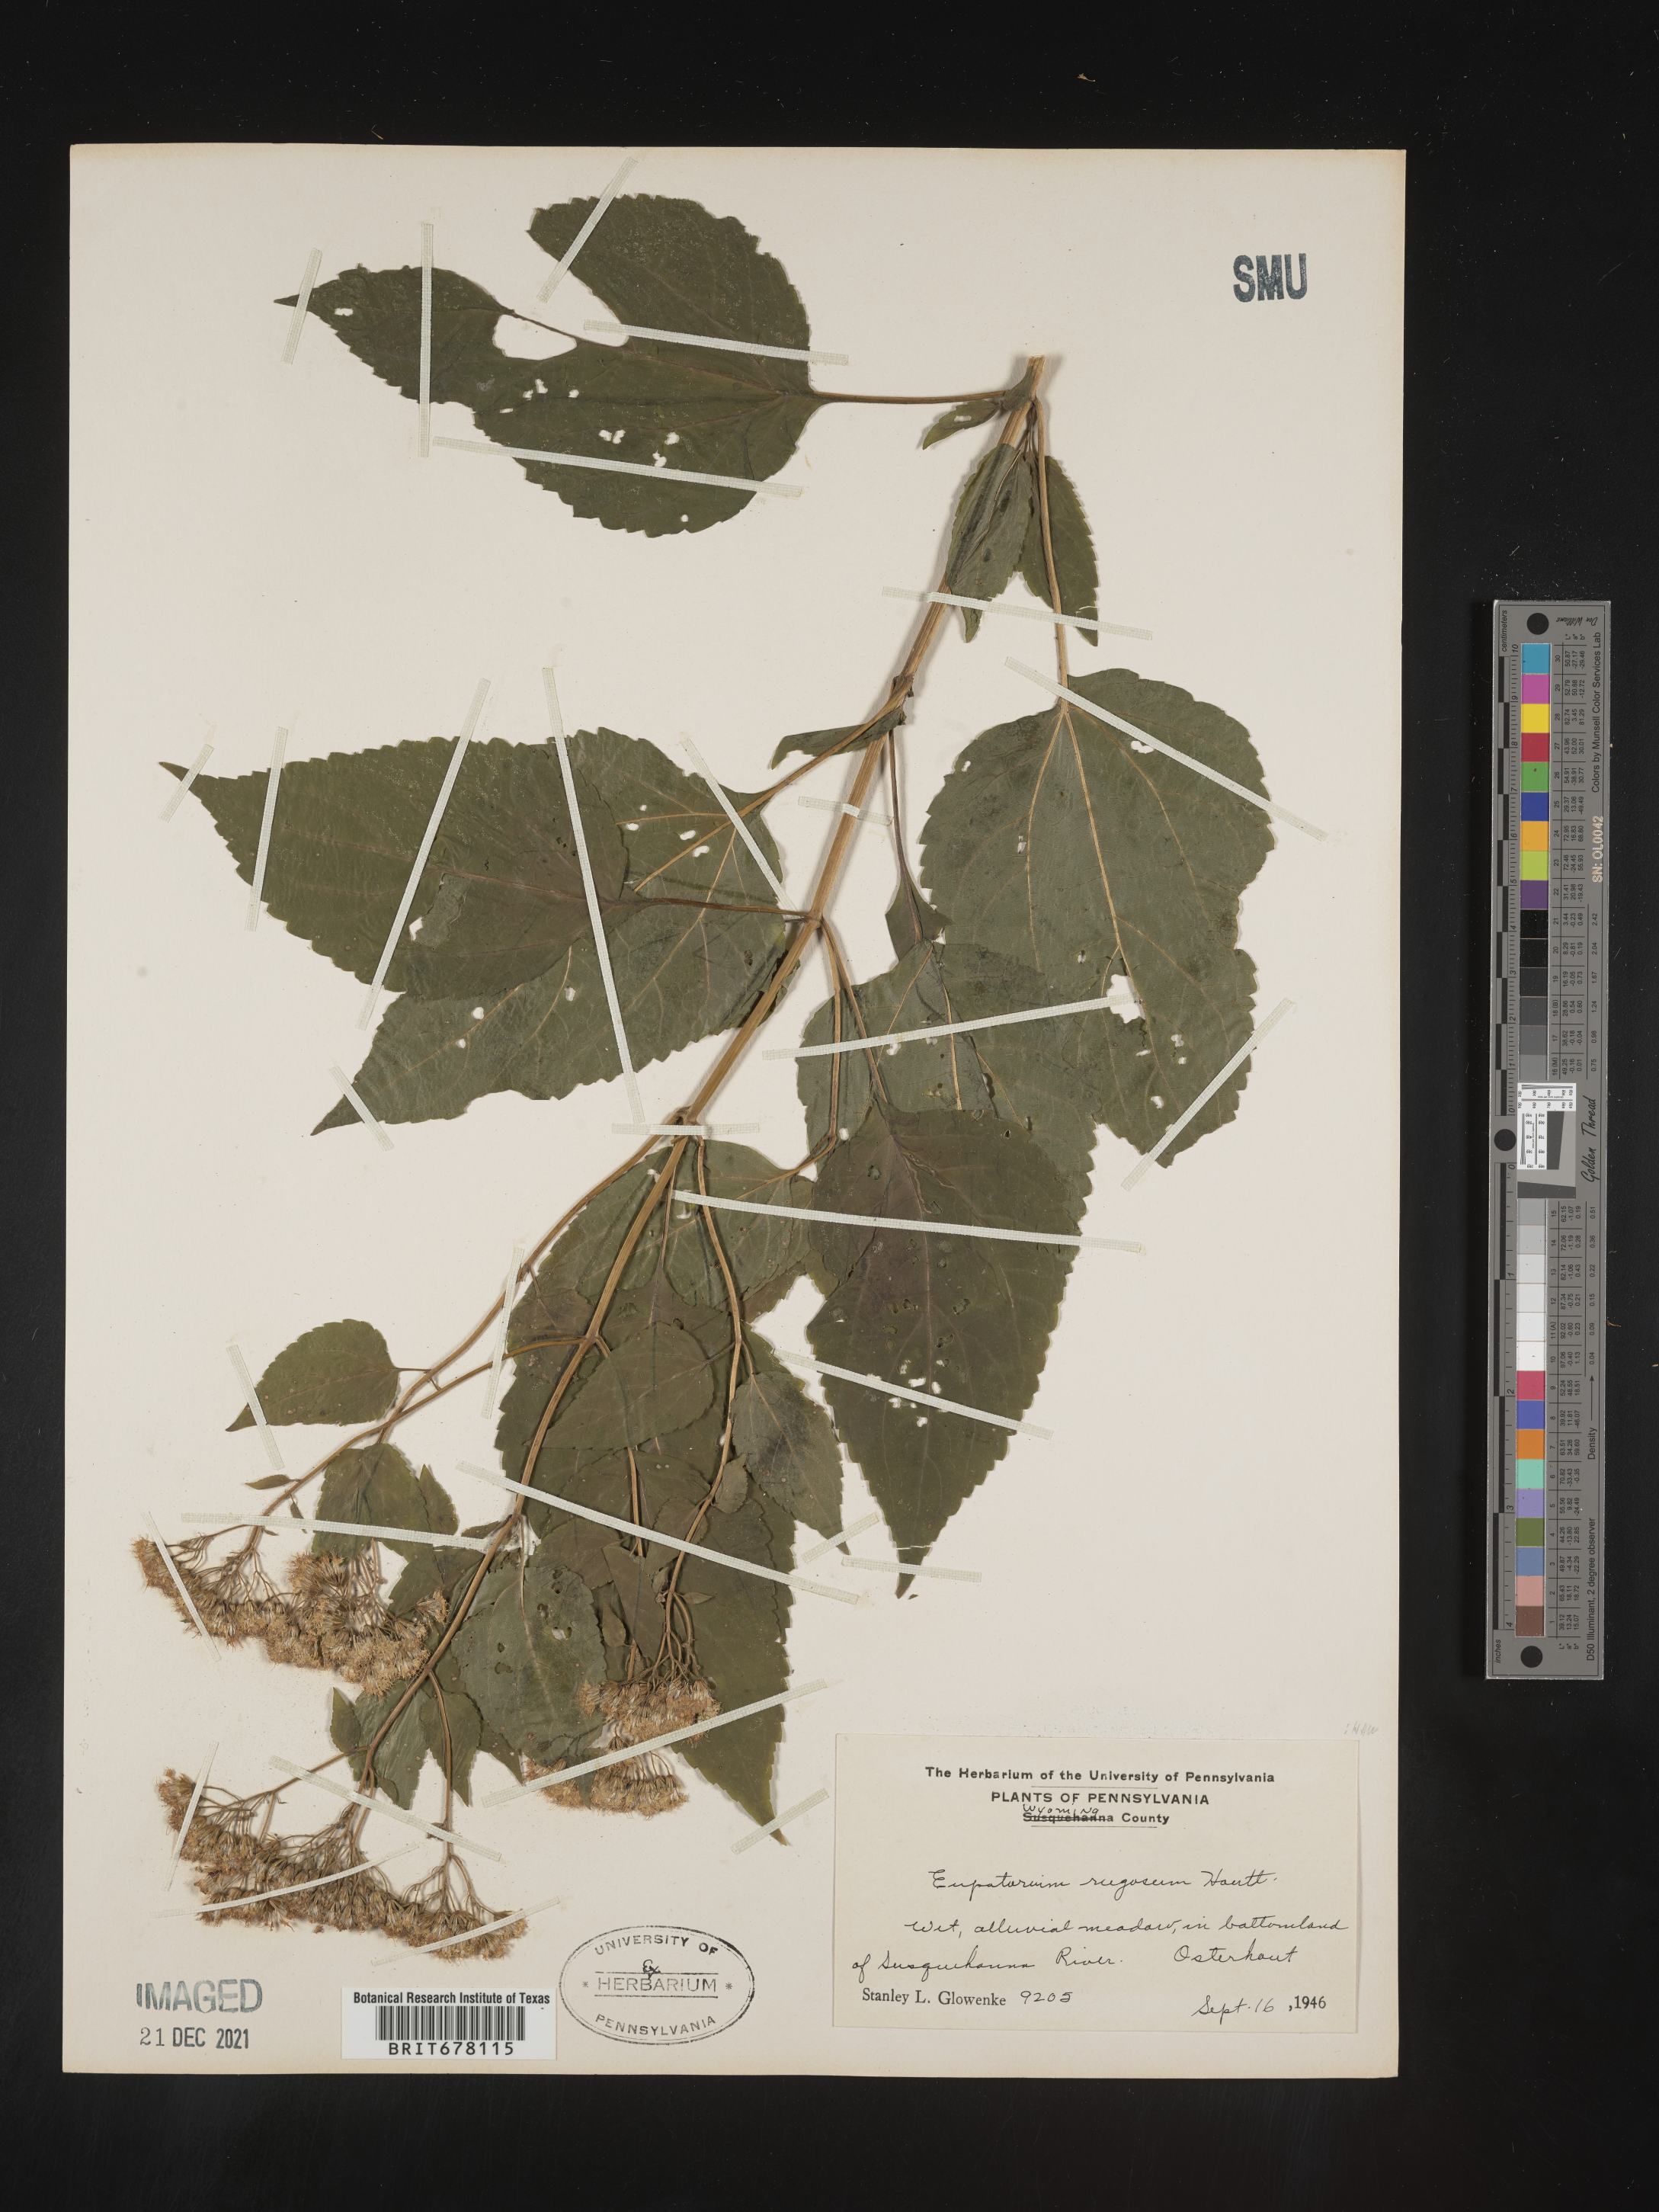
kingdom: Plantae
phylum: Tracheophyta
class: Magnoliopsida
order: Asterales
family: Asteraceae
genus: Eupatorium
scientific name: Eupatorium
